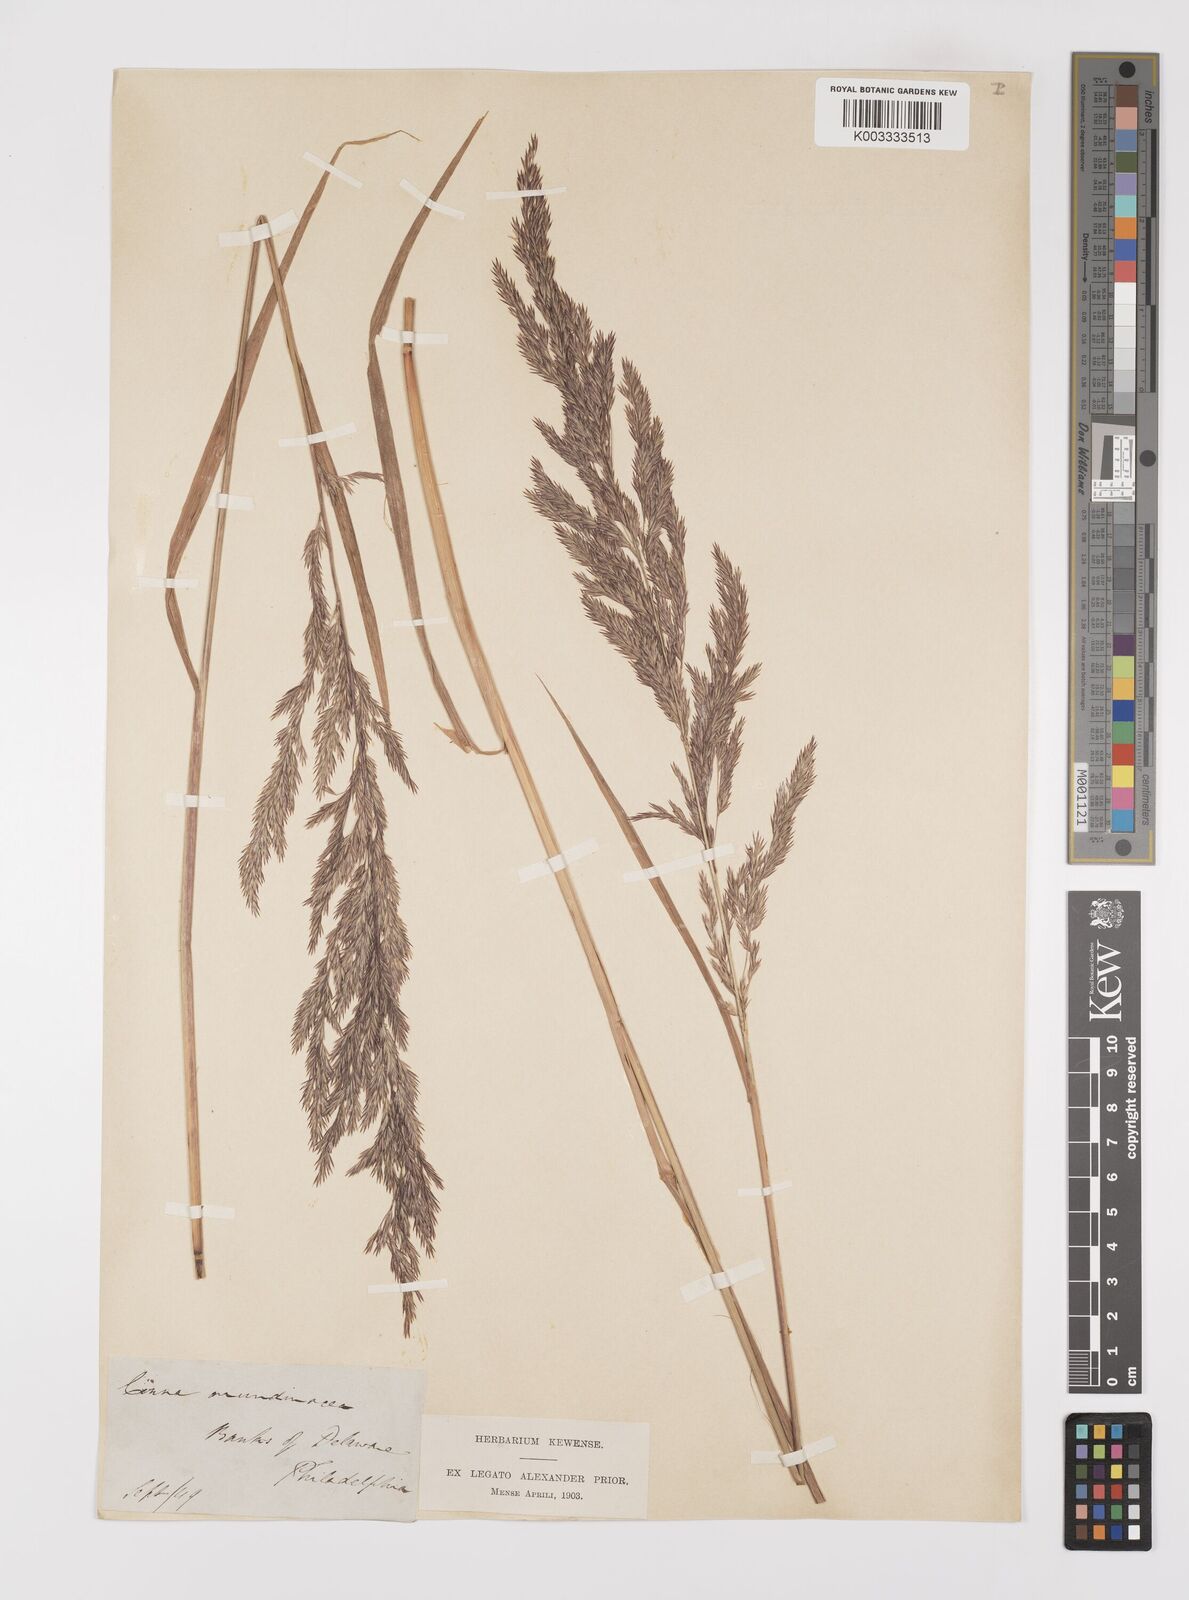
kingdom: Plantae
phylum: Tracheophyta
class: Liliopsida
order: Poales
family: Poaceae
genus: Cinna
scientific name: Cinna
